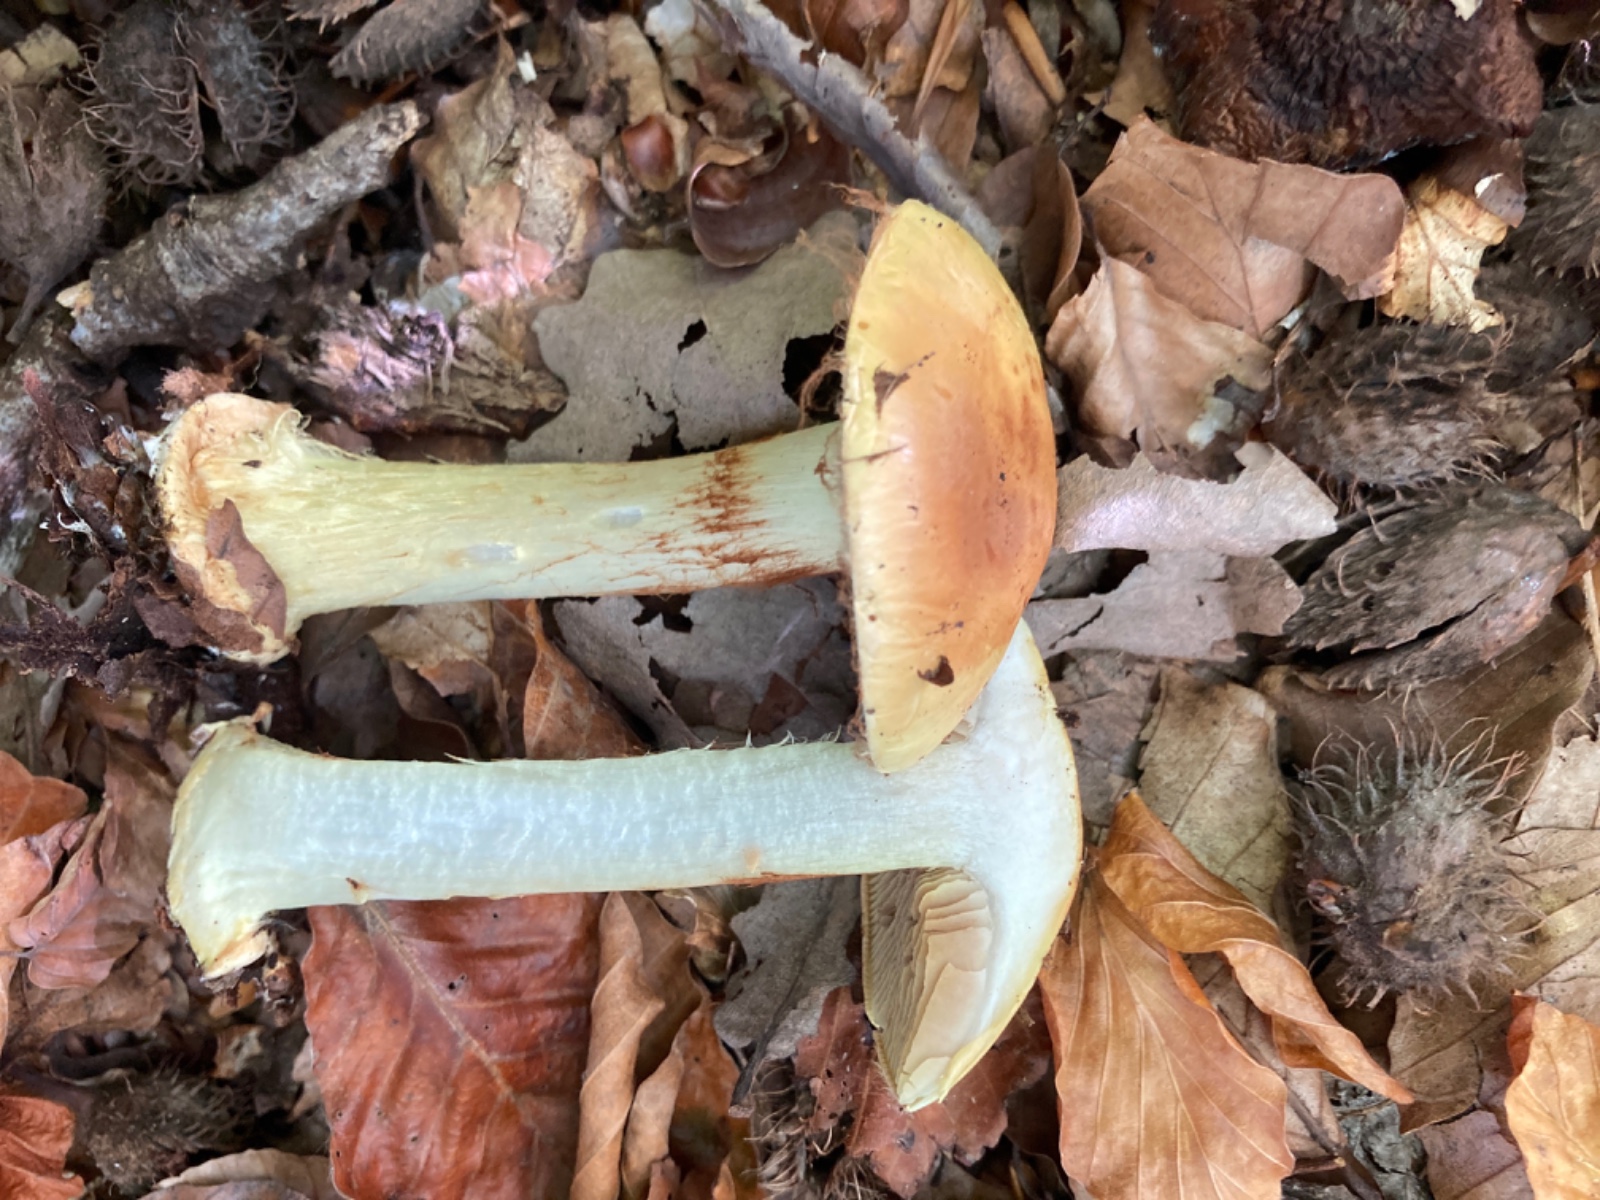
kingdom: Fungi
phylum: Basidiomycota
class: Agaricomycetes
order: Agaricales
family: Cortinariaceae
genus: Calonarius
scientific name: Calonarius elegantissimus
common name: orangegylden slørhat
